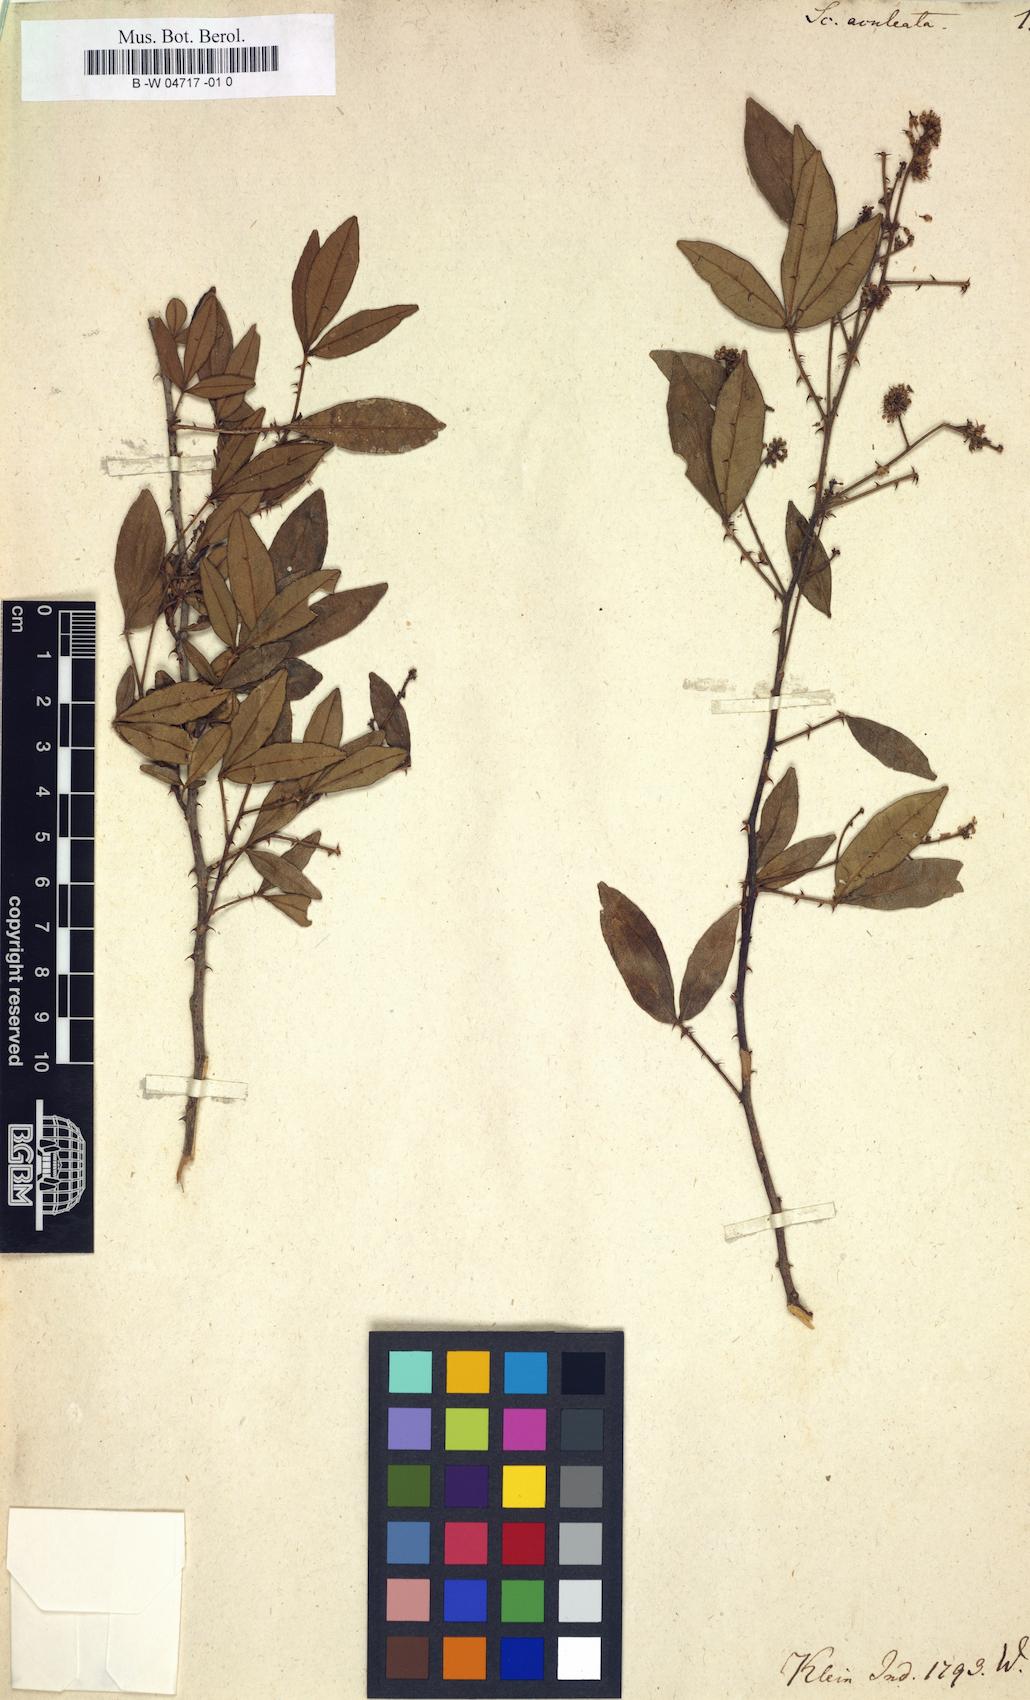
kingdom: Plantae
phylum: Tracheophyta
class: Magnoliopsida
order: Sapindales
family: Rutaceae
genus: Scopolia
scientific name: Scopolia aculeata
